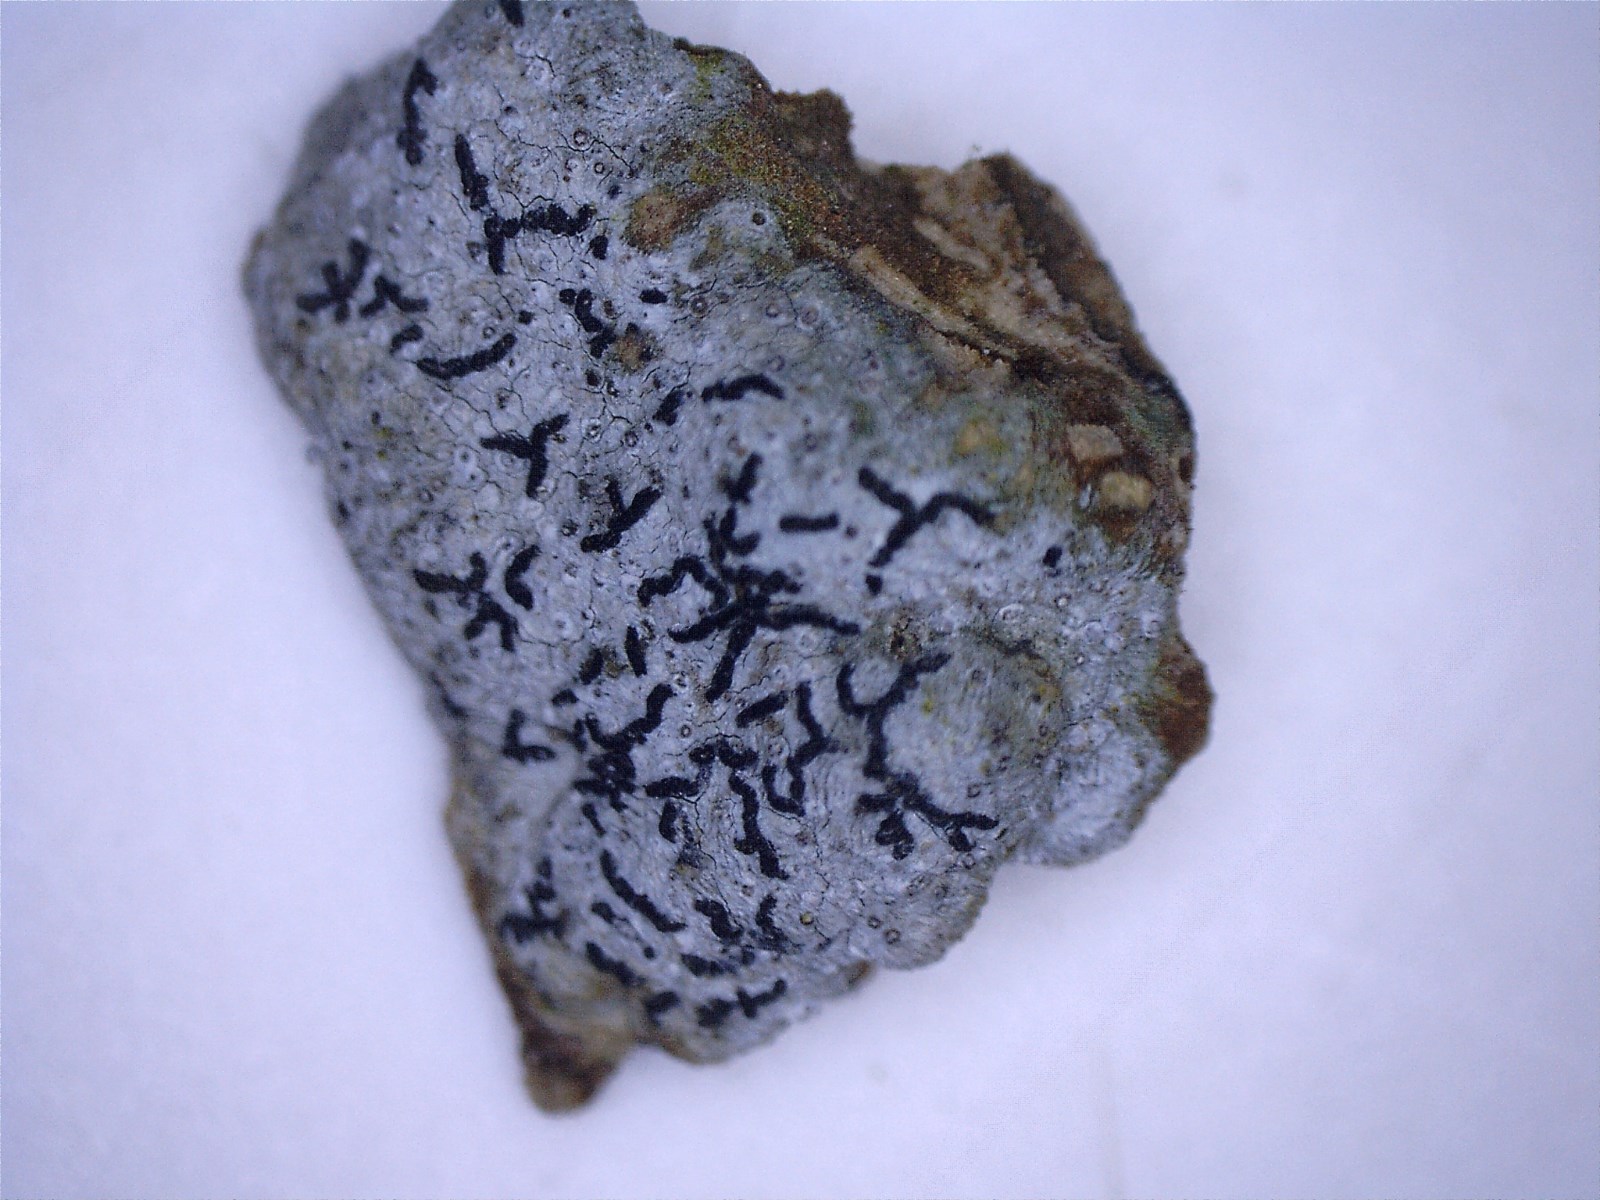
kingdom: Fungi
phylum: Ascomycota
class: Arthoniomycetes
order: Arthoniales
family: Lecanographaceae
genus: Alyxoria
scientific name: Alyxoria varia
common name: almindelig bogstavlav
